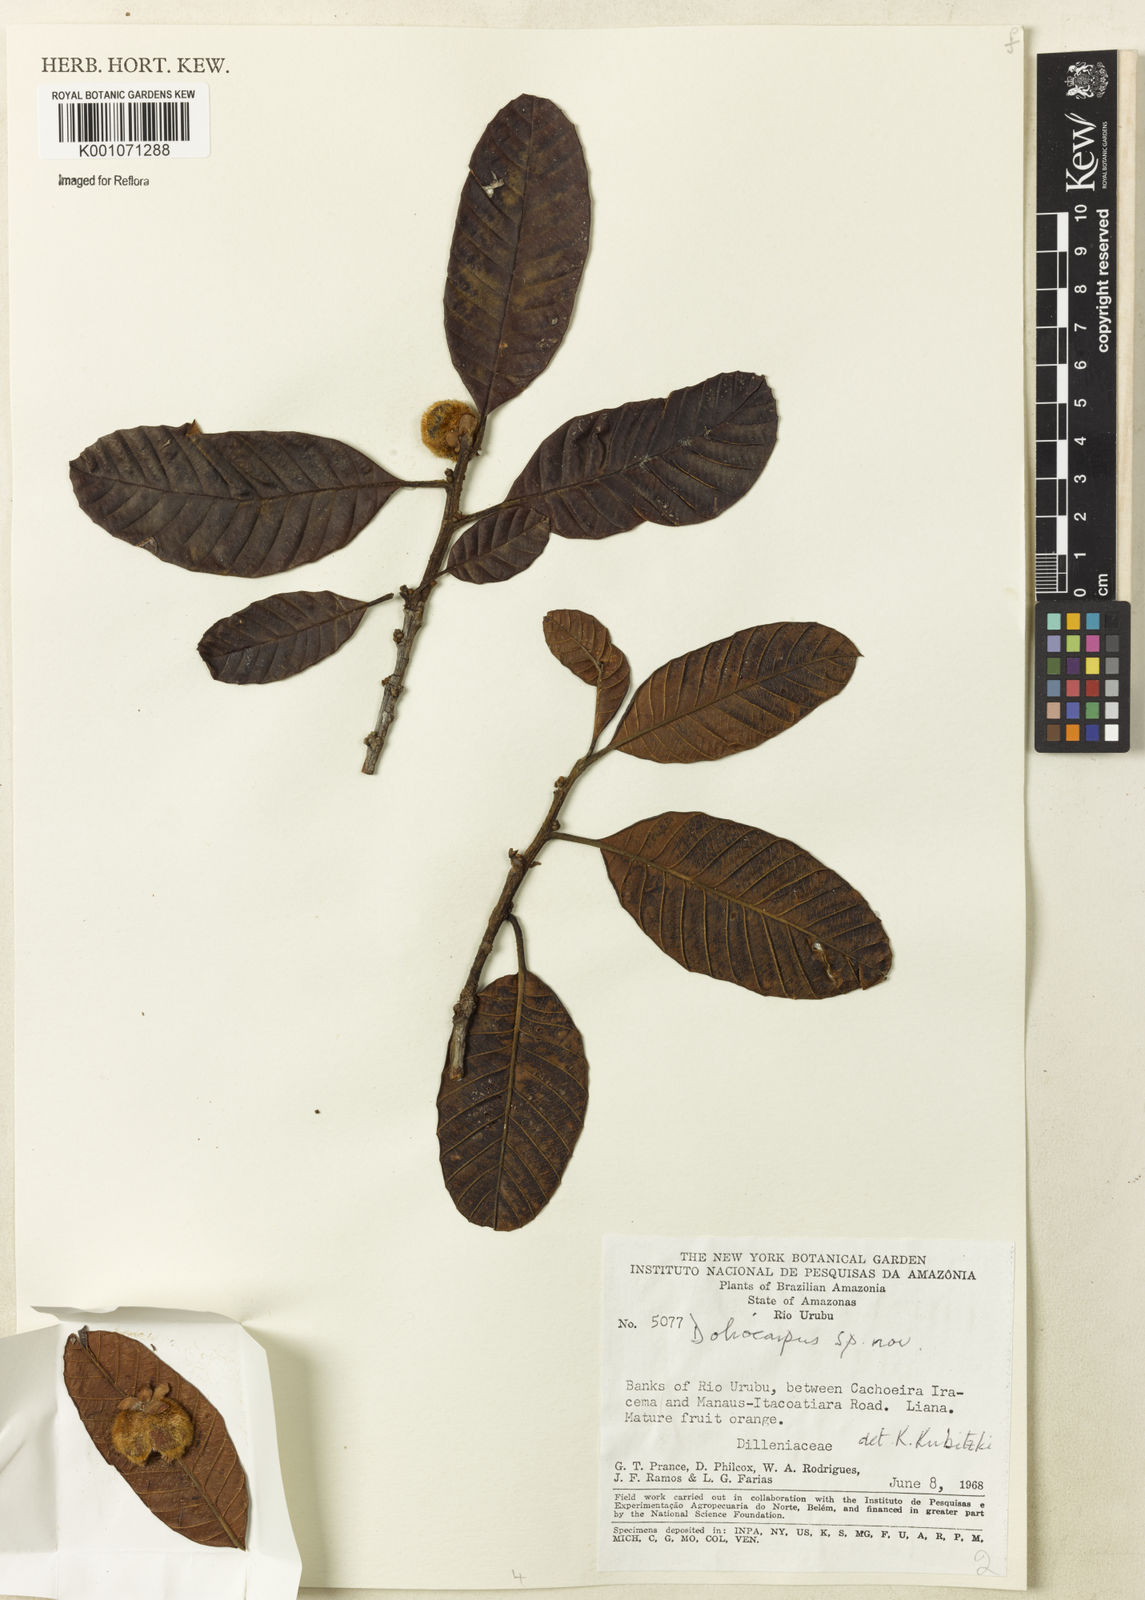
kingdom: Plantae
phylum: Tracheophyta
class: Magnoliopsida
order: Dilleniales
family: Dilleniaceae
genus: Doliocarpus
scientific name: Doliocarpus
